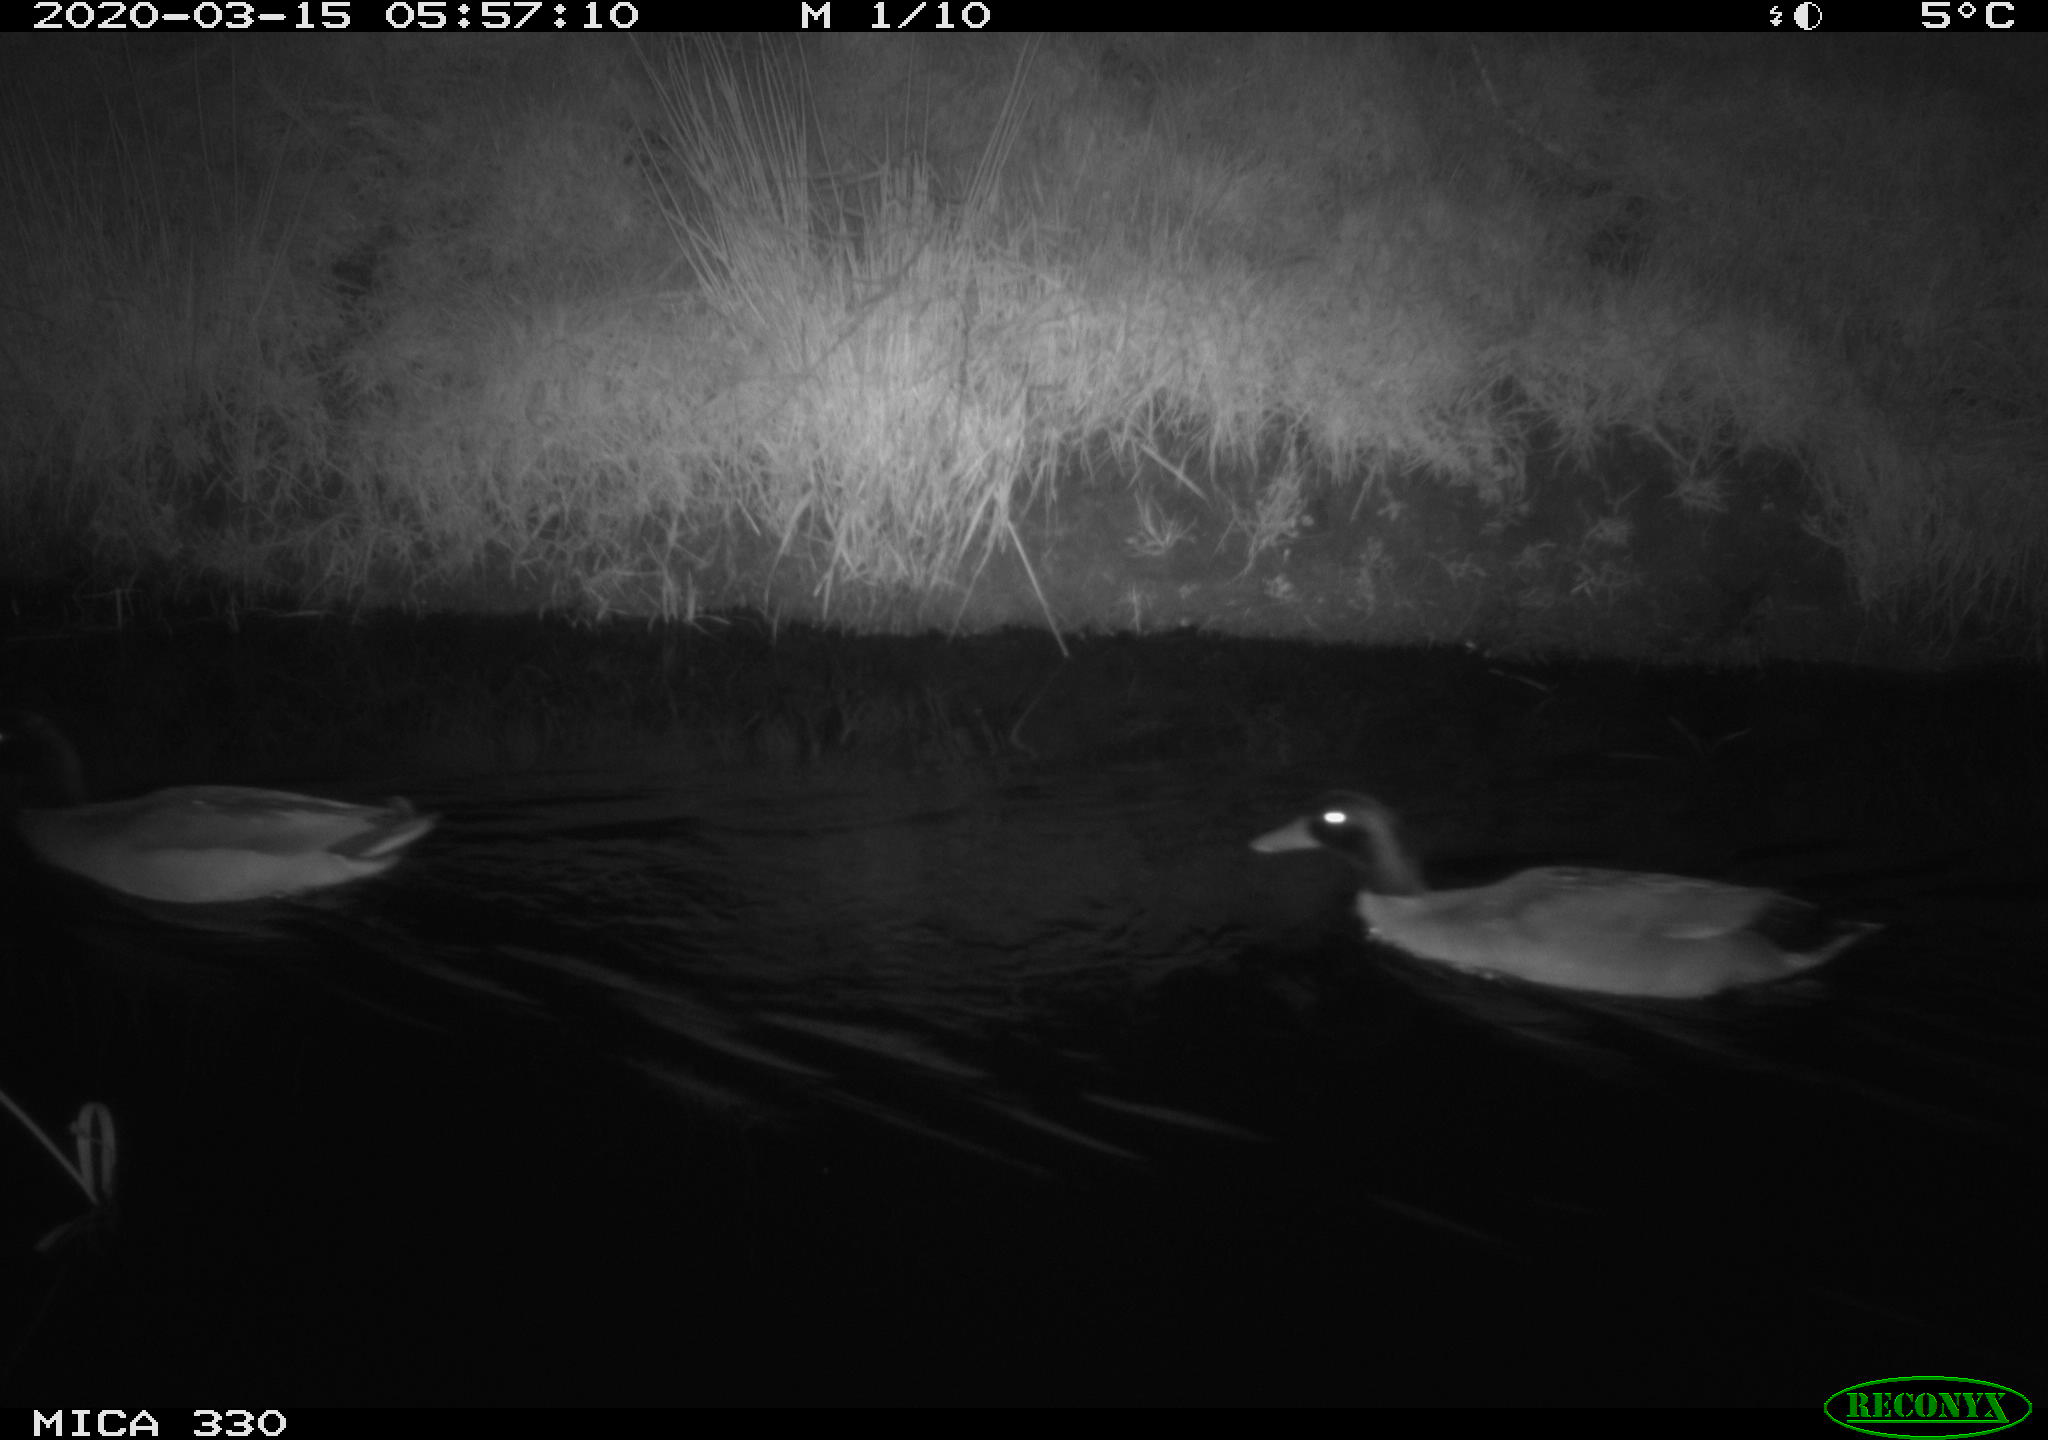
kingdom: Animalia
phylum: Chordata
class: Aves
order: Anseriformes
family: Anatidae
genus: Anas
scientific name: Anas platyrhynchos
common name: Mallard
